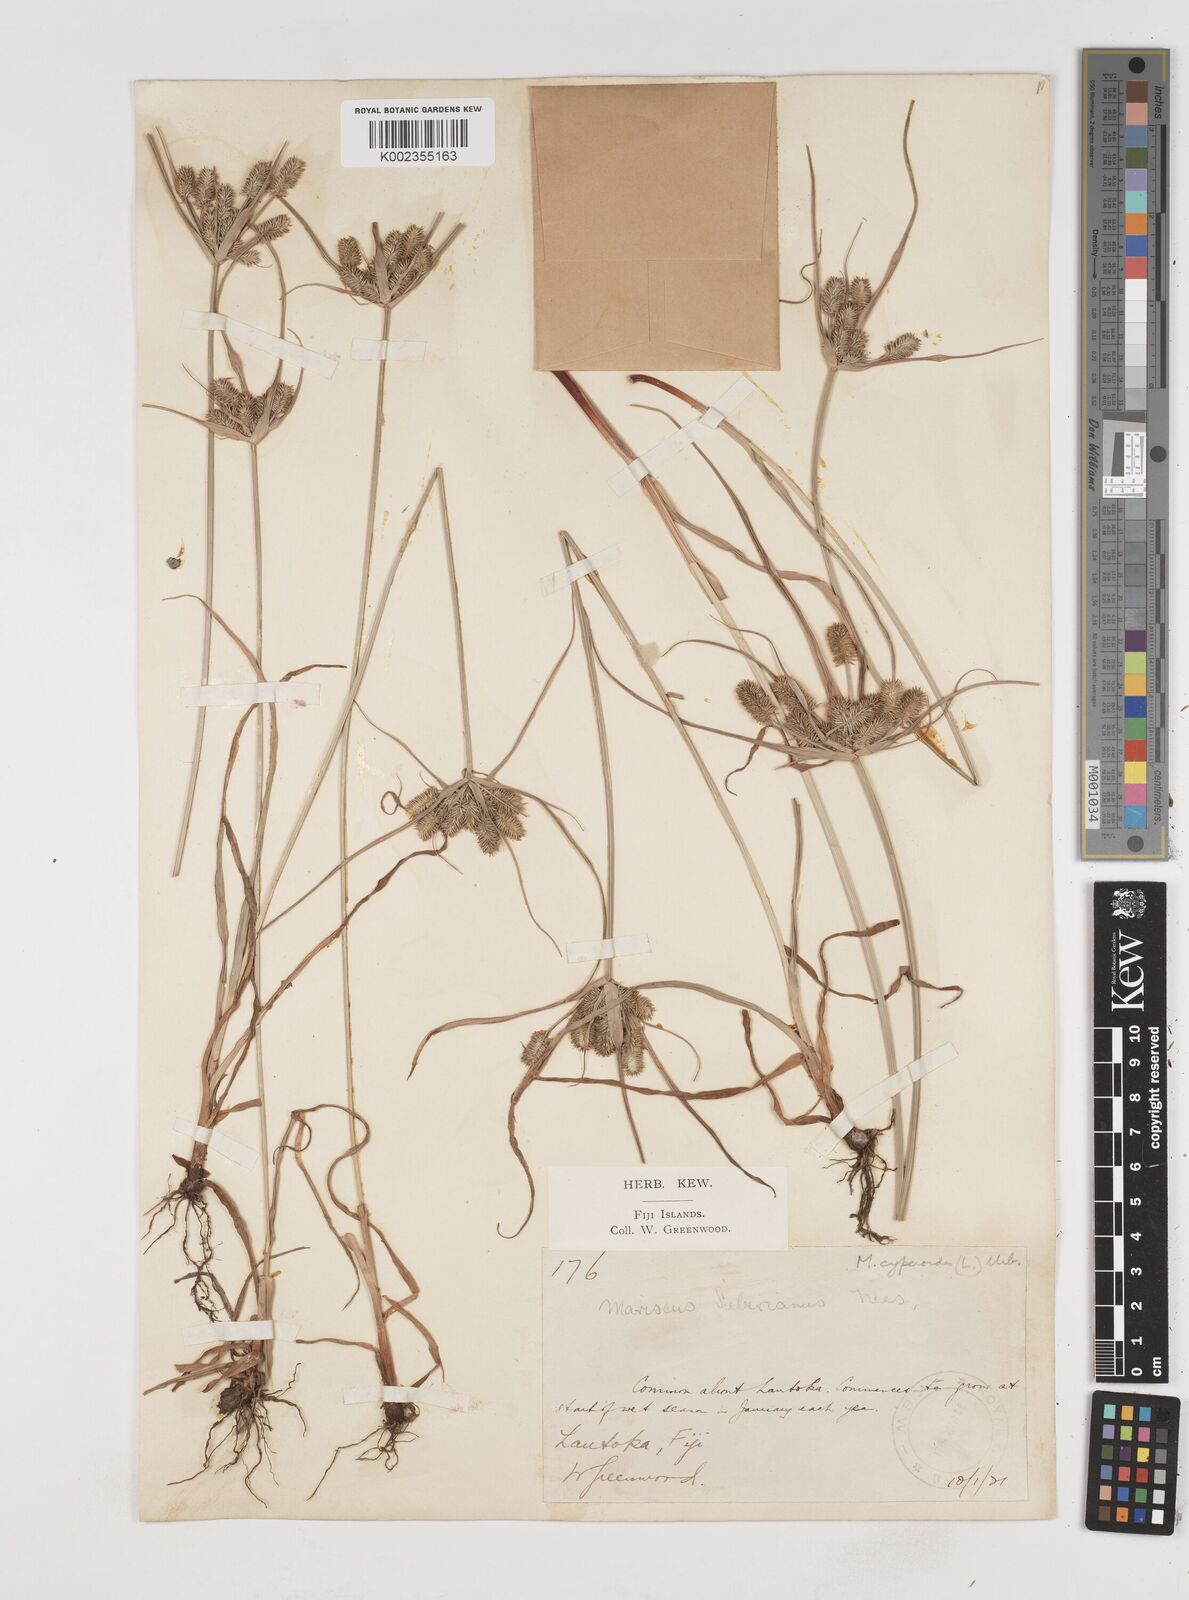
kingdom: Plantae
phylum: Tracheophyta
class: Liliopsida
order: Poales
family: Cyperaceae
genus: Cyperus
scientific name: Cyperus cyperoides
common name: Pacific island flat sedge
